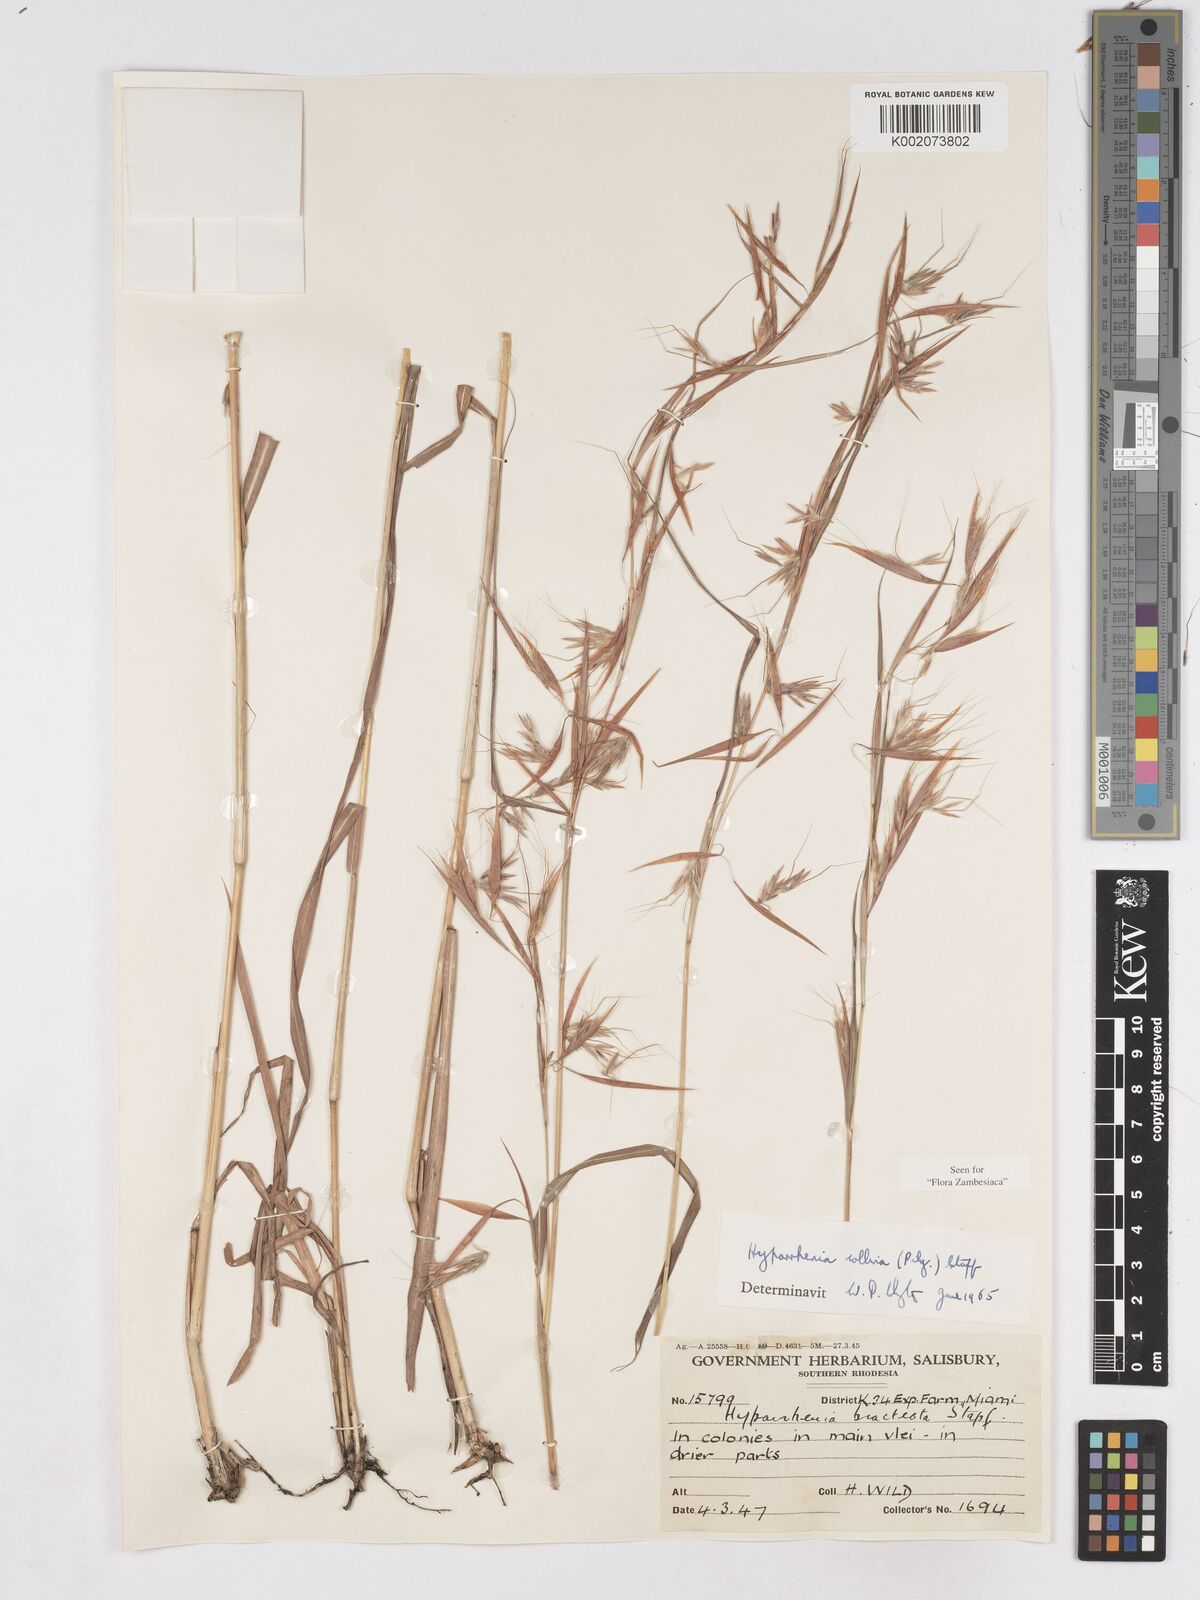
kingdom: Plantae
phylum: Tracheophyta
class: Liliopsida
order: Poales
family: Poaceae
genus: Hyparrhenia
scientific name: Hyparrhenia collina
